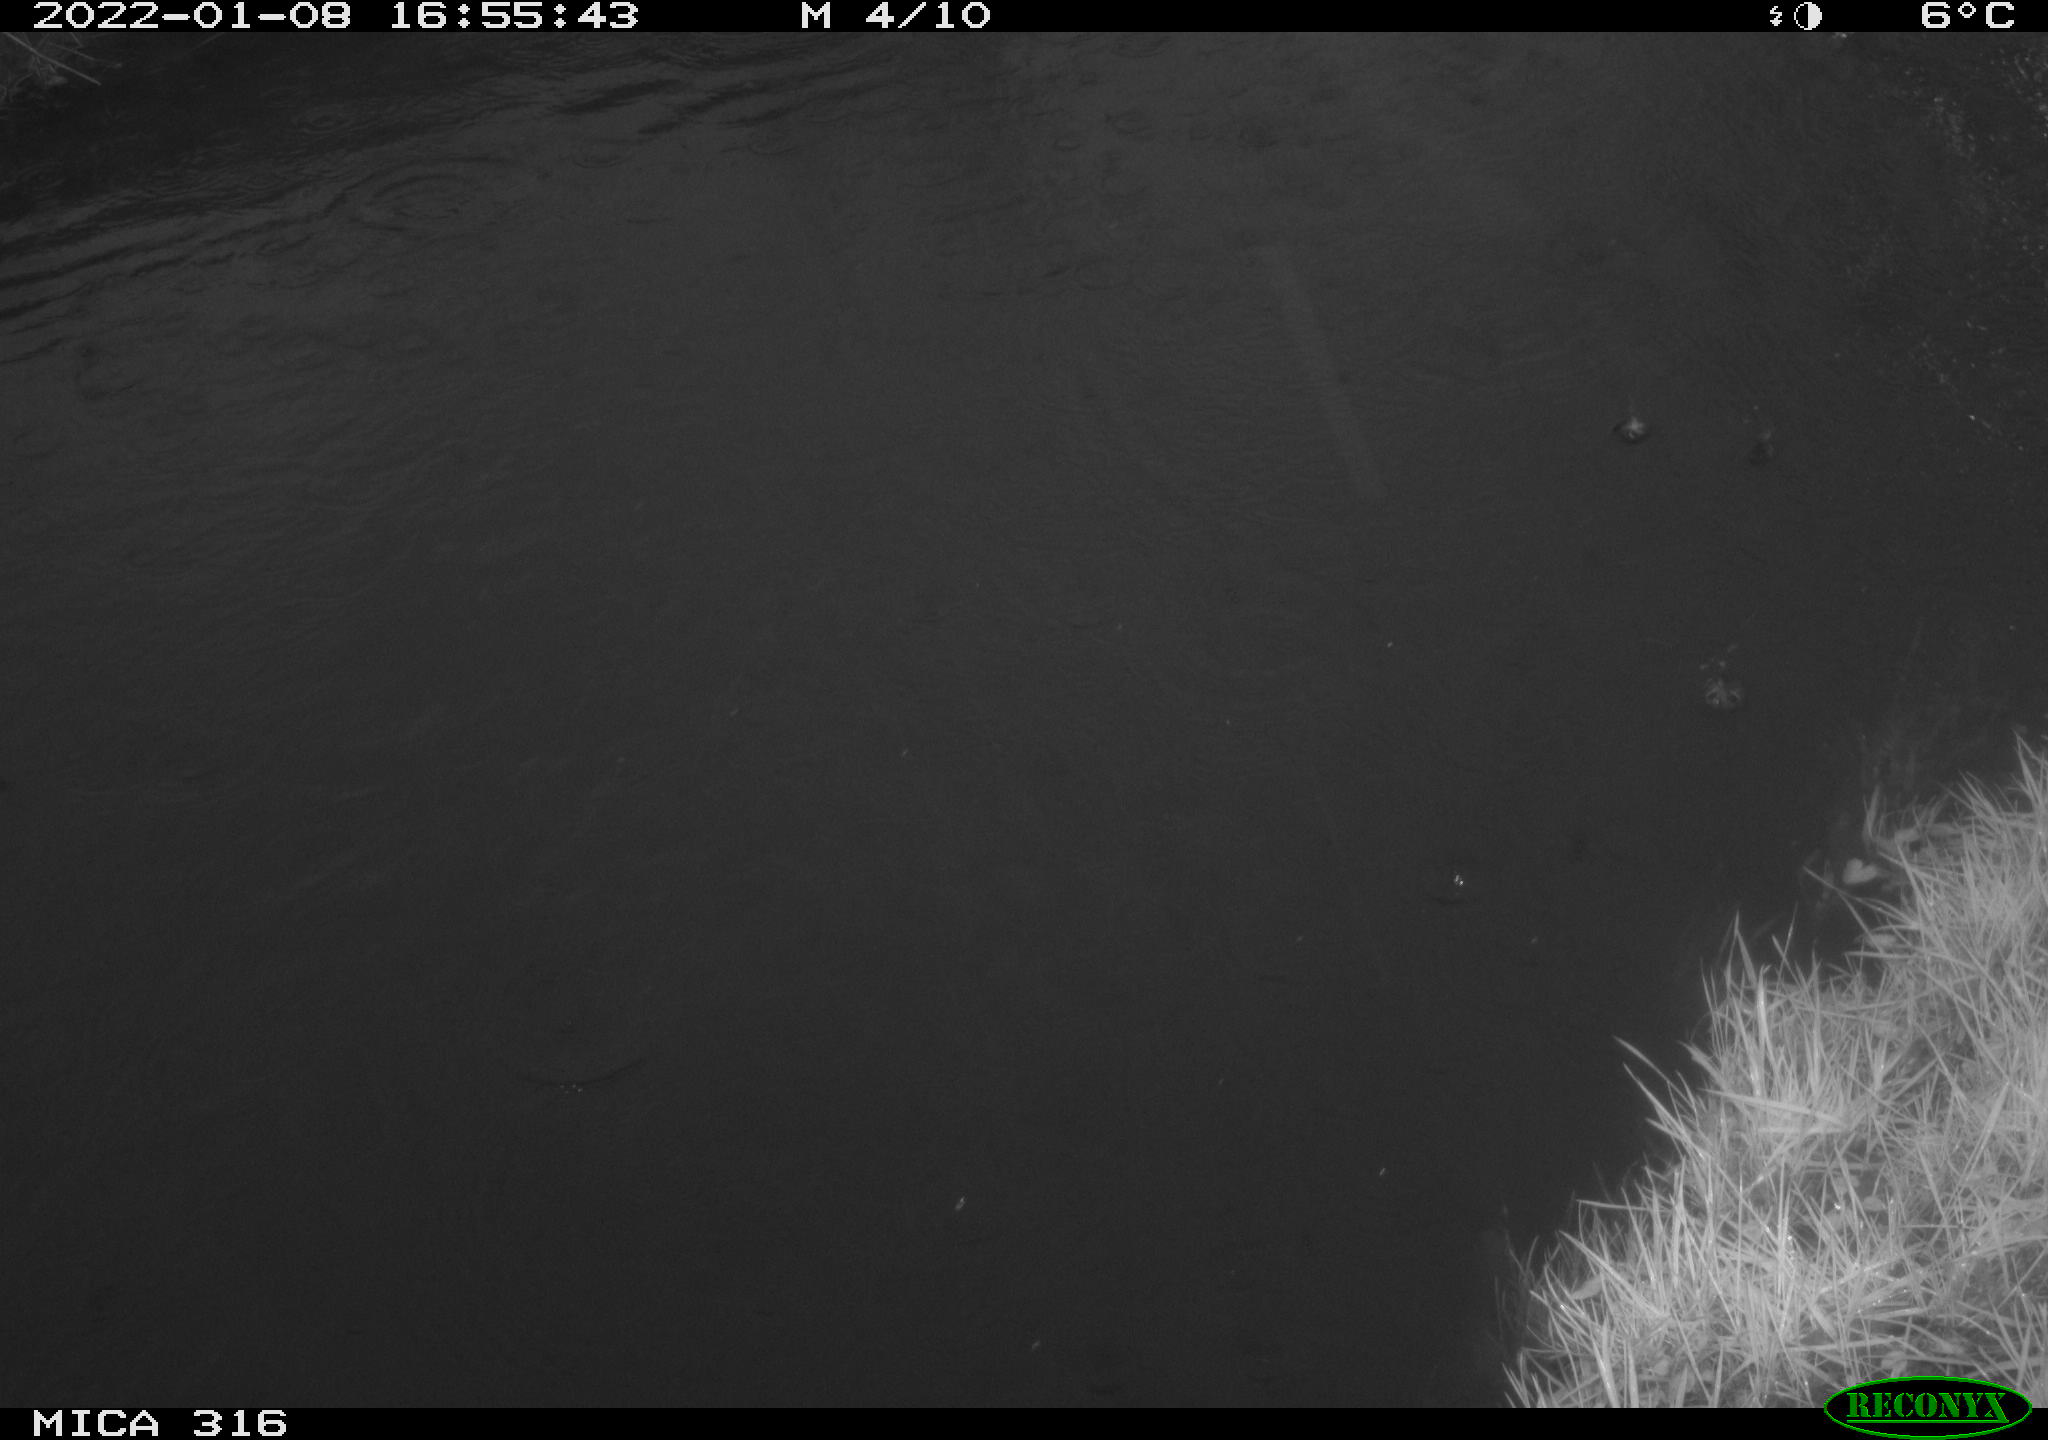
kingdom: Animalia
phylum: Chordata
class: Aves
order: Anseriformes
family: Anatidae
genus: Anas
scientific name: Anas
